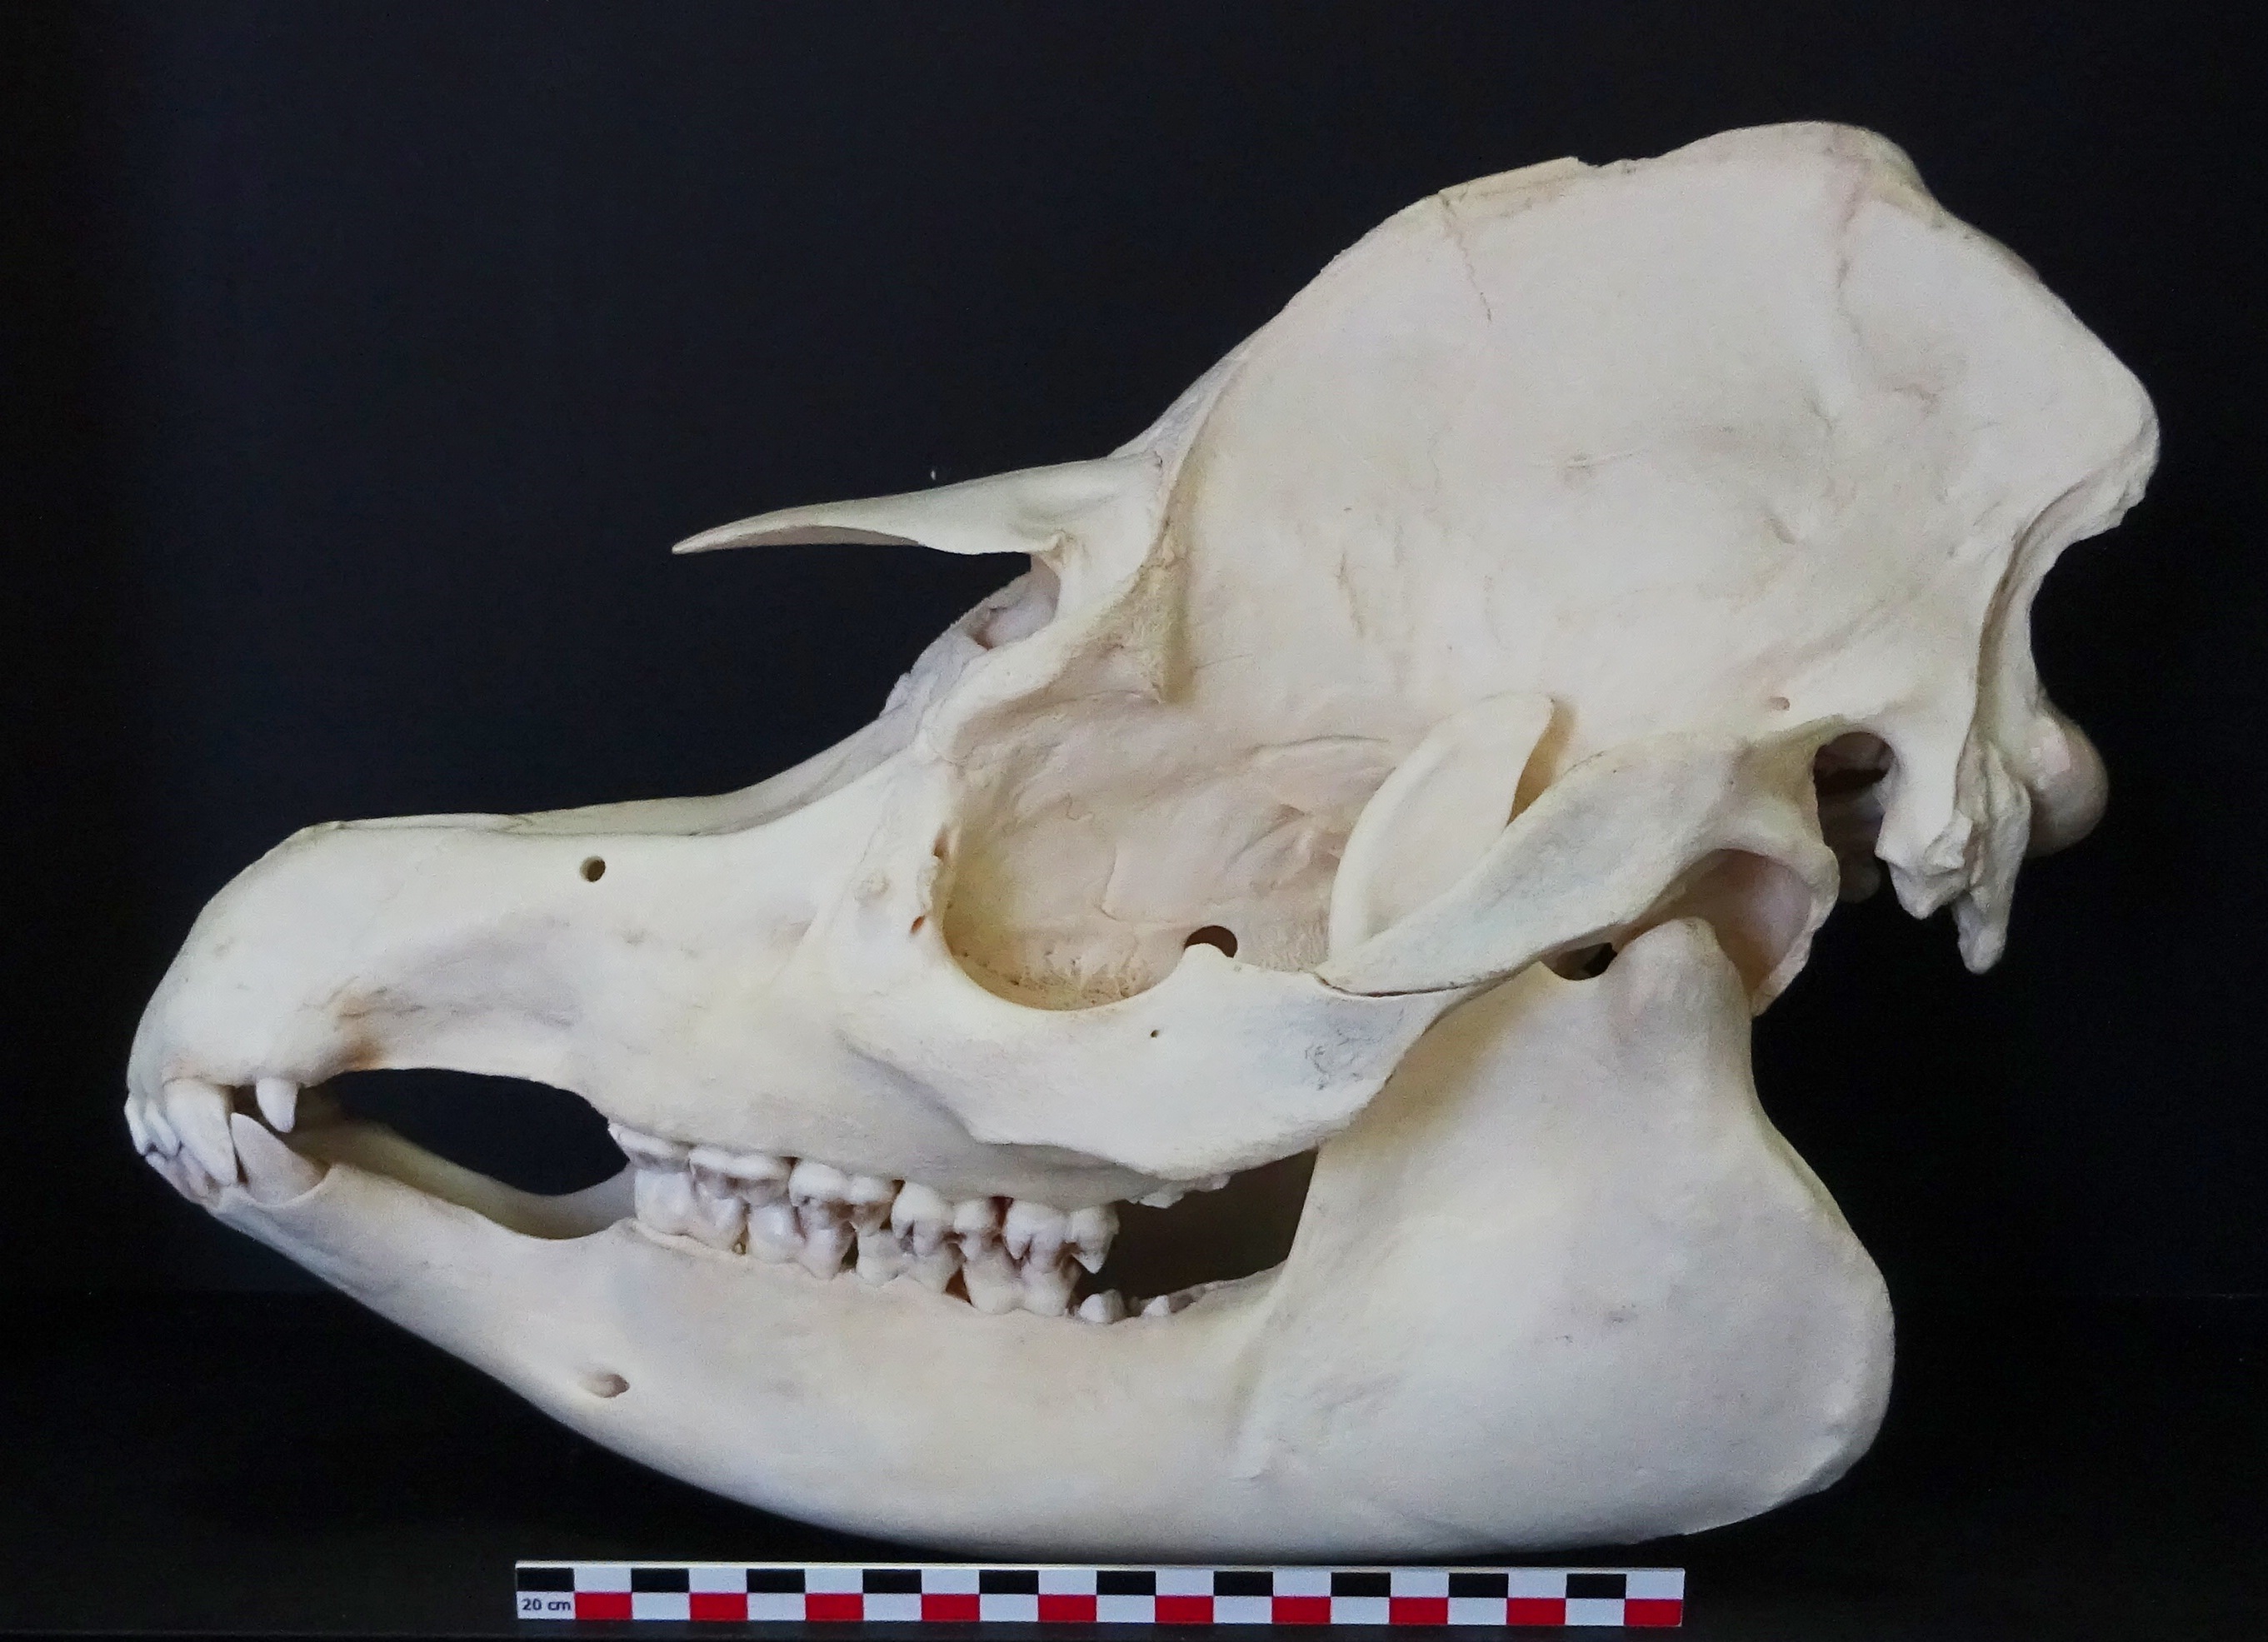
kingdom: Animalia
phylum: Chordata
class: Mammalia
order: Perissodactyla
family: Tapiridae
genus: Tapirus
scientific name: Tapirus terrestris
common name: Brazilian tapir
